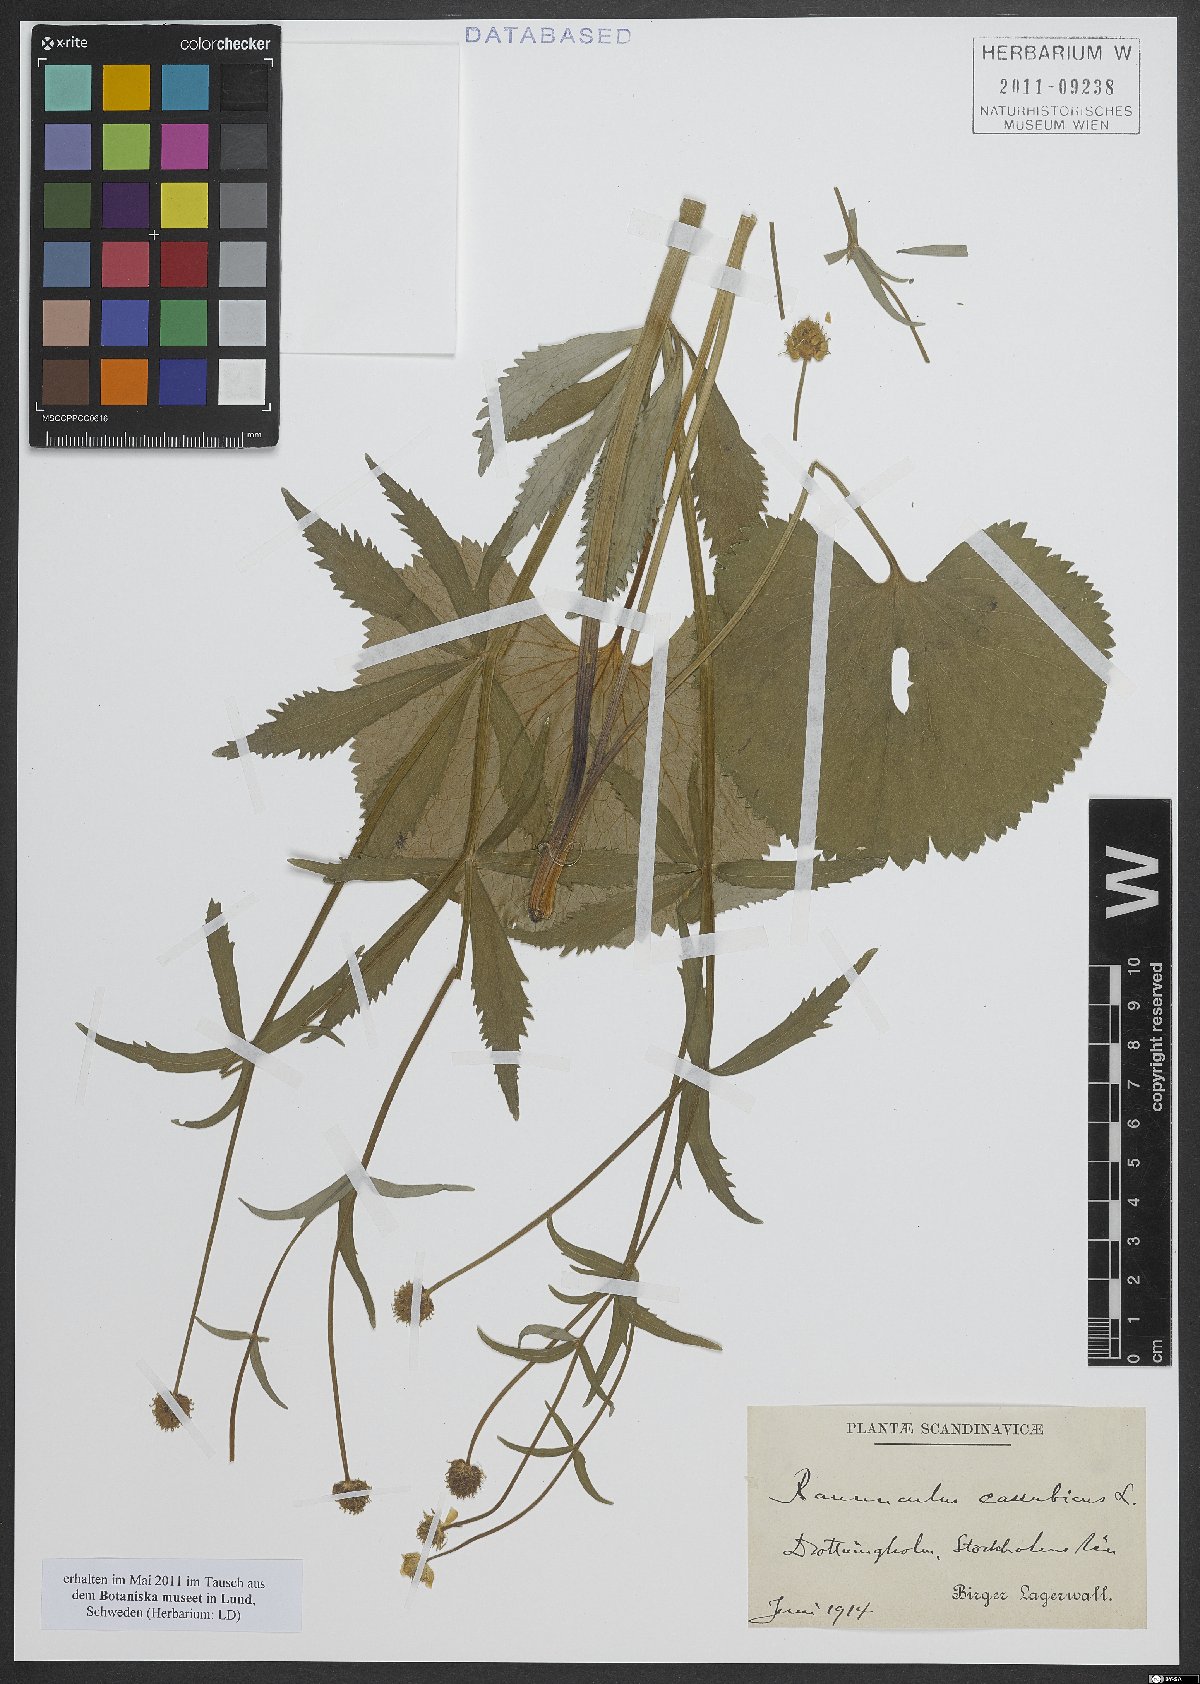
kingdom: Plantae
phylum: Tracheophyta
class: Magnoliopsida
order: Ranunculales
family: Ranunculaceae
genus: Ranunculus
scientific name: Ranunculus cassubicus
